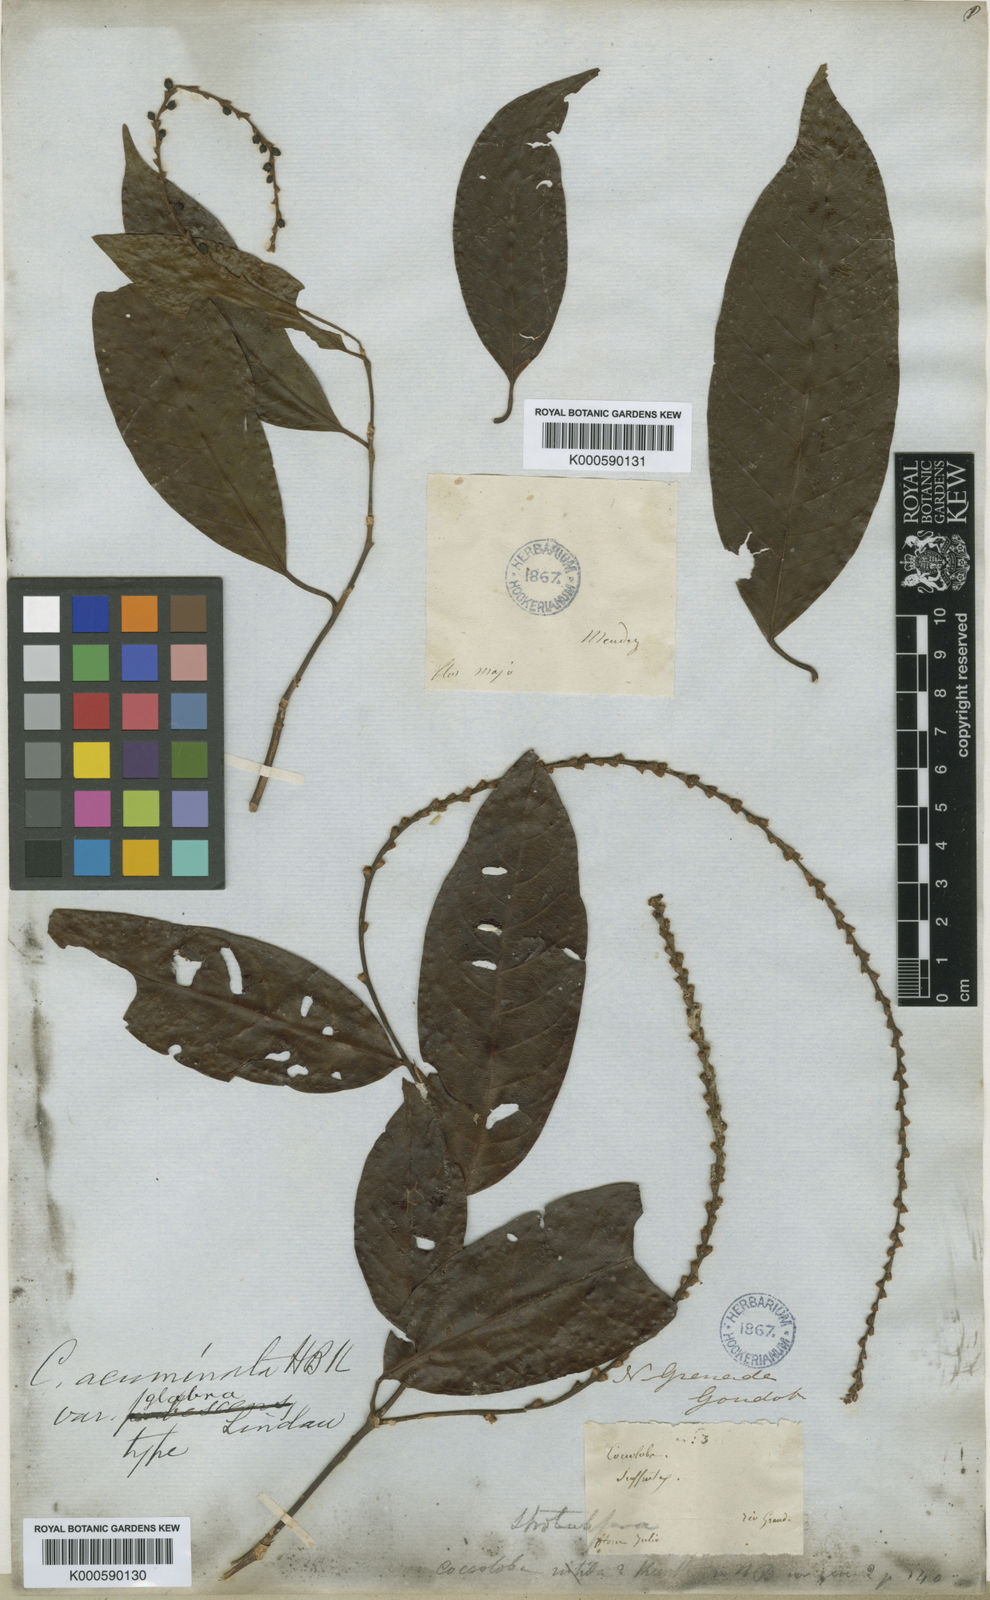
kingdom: Plantae
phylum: Tracheophyta
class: Magnoliopsida
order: Caryophyllales
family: Polygonaceae
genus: Coccoloba
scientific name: Coccoloba acuminata
